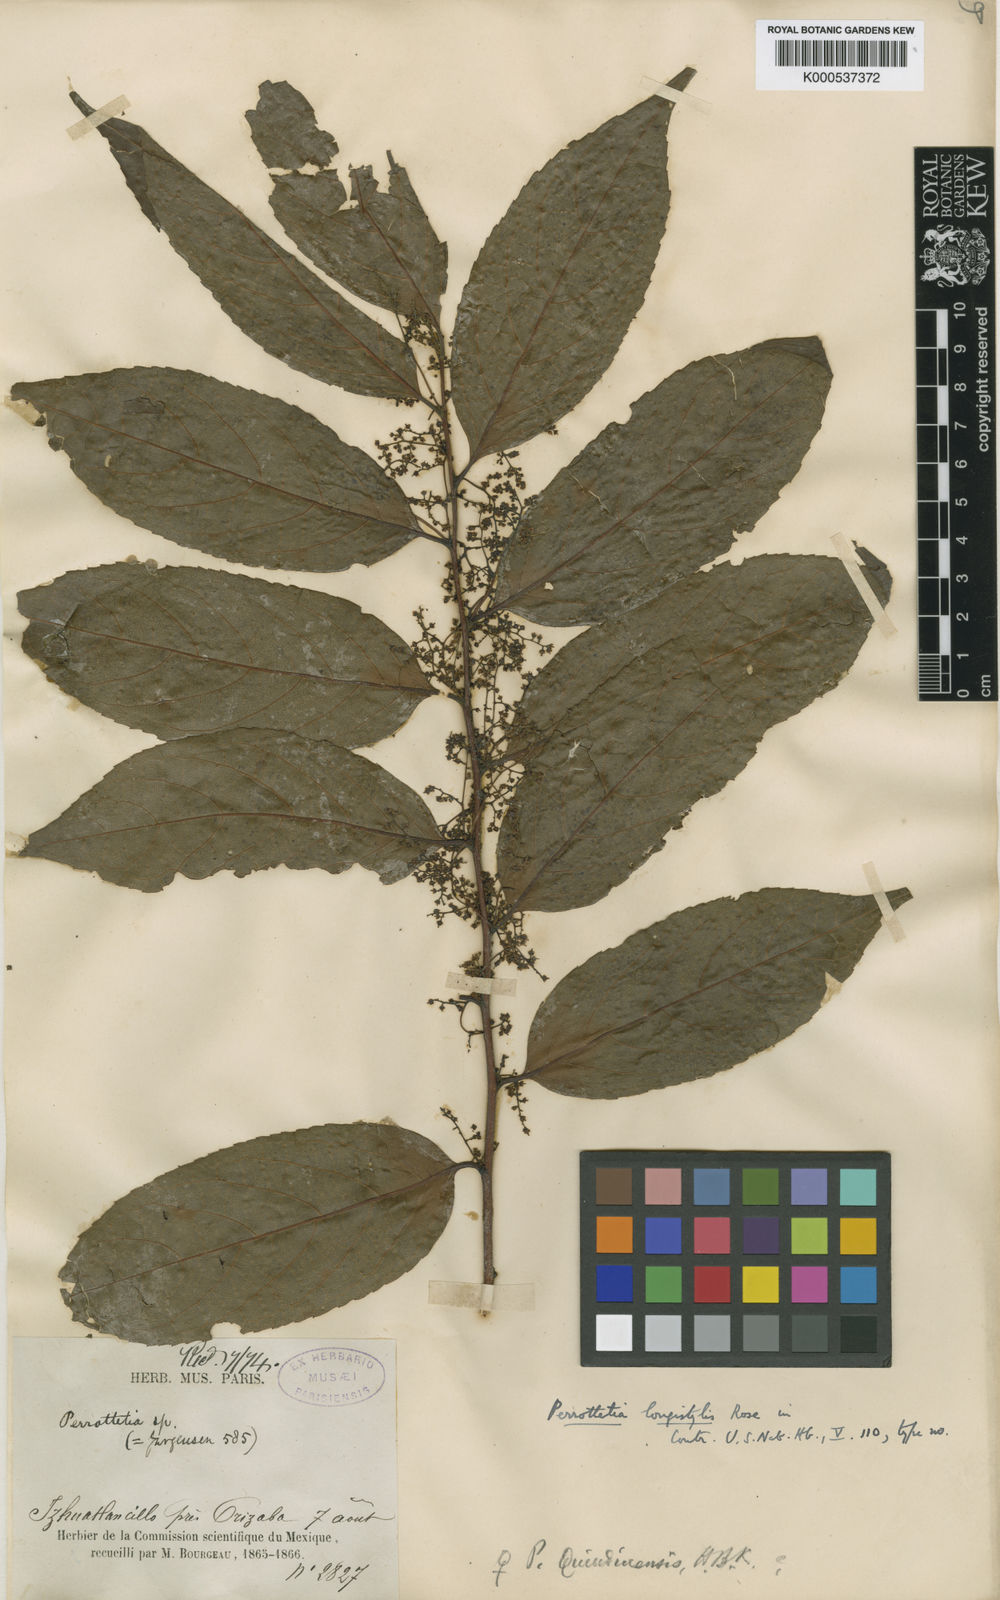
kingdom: Plantae
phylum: Tracheophyta
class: Magnoliopsida
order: Huerteales
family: Dipentodontaceae
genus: Perrottetia
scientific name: Perrottetia longistylis
